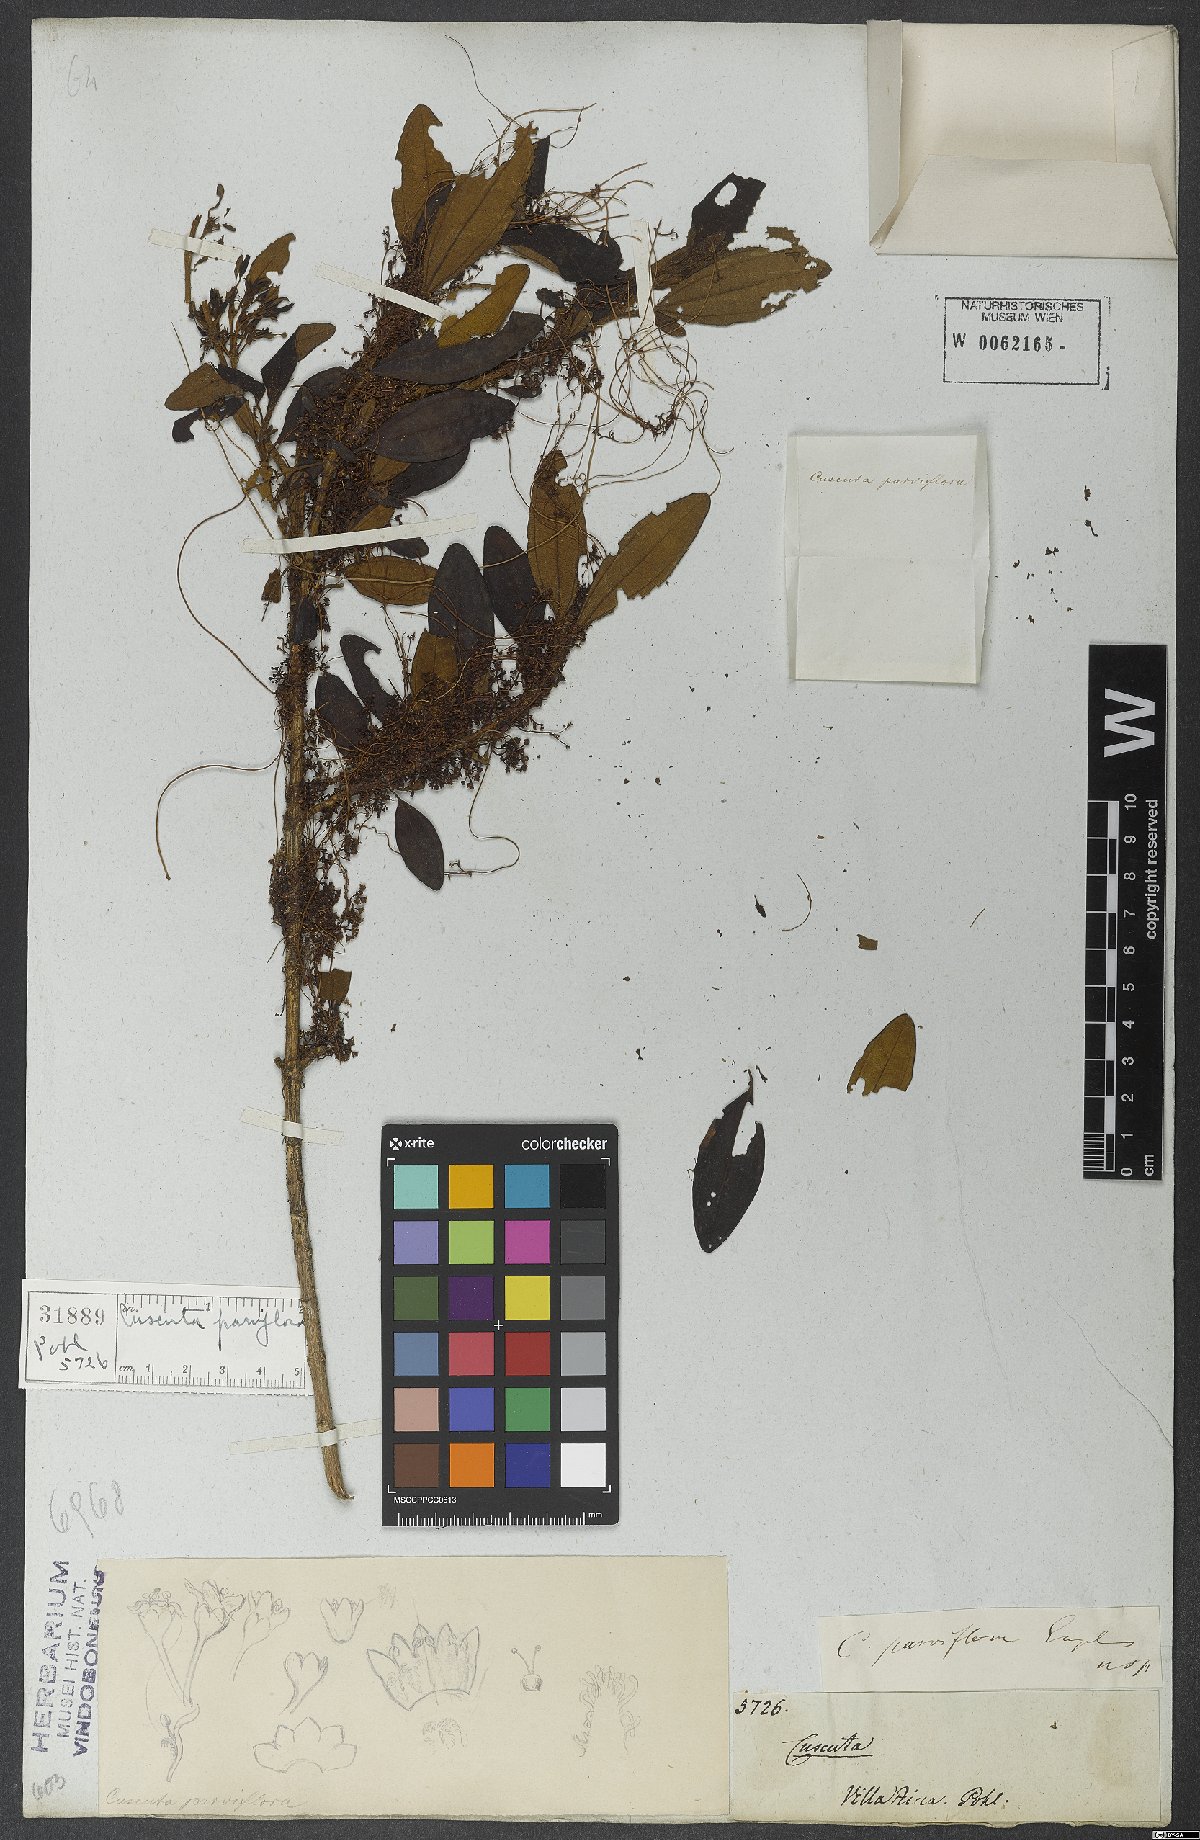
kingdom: Plantae
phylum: Tracheophyta
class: Magnoliopsida
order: Solanales
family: Convolvulaceae
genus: Cuscuta
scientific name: Cuscuta parviflora
